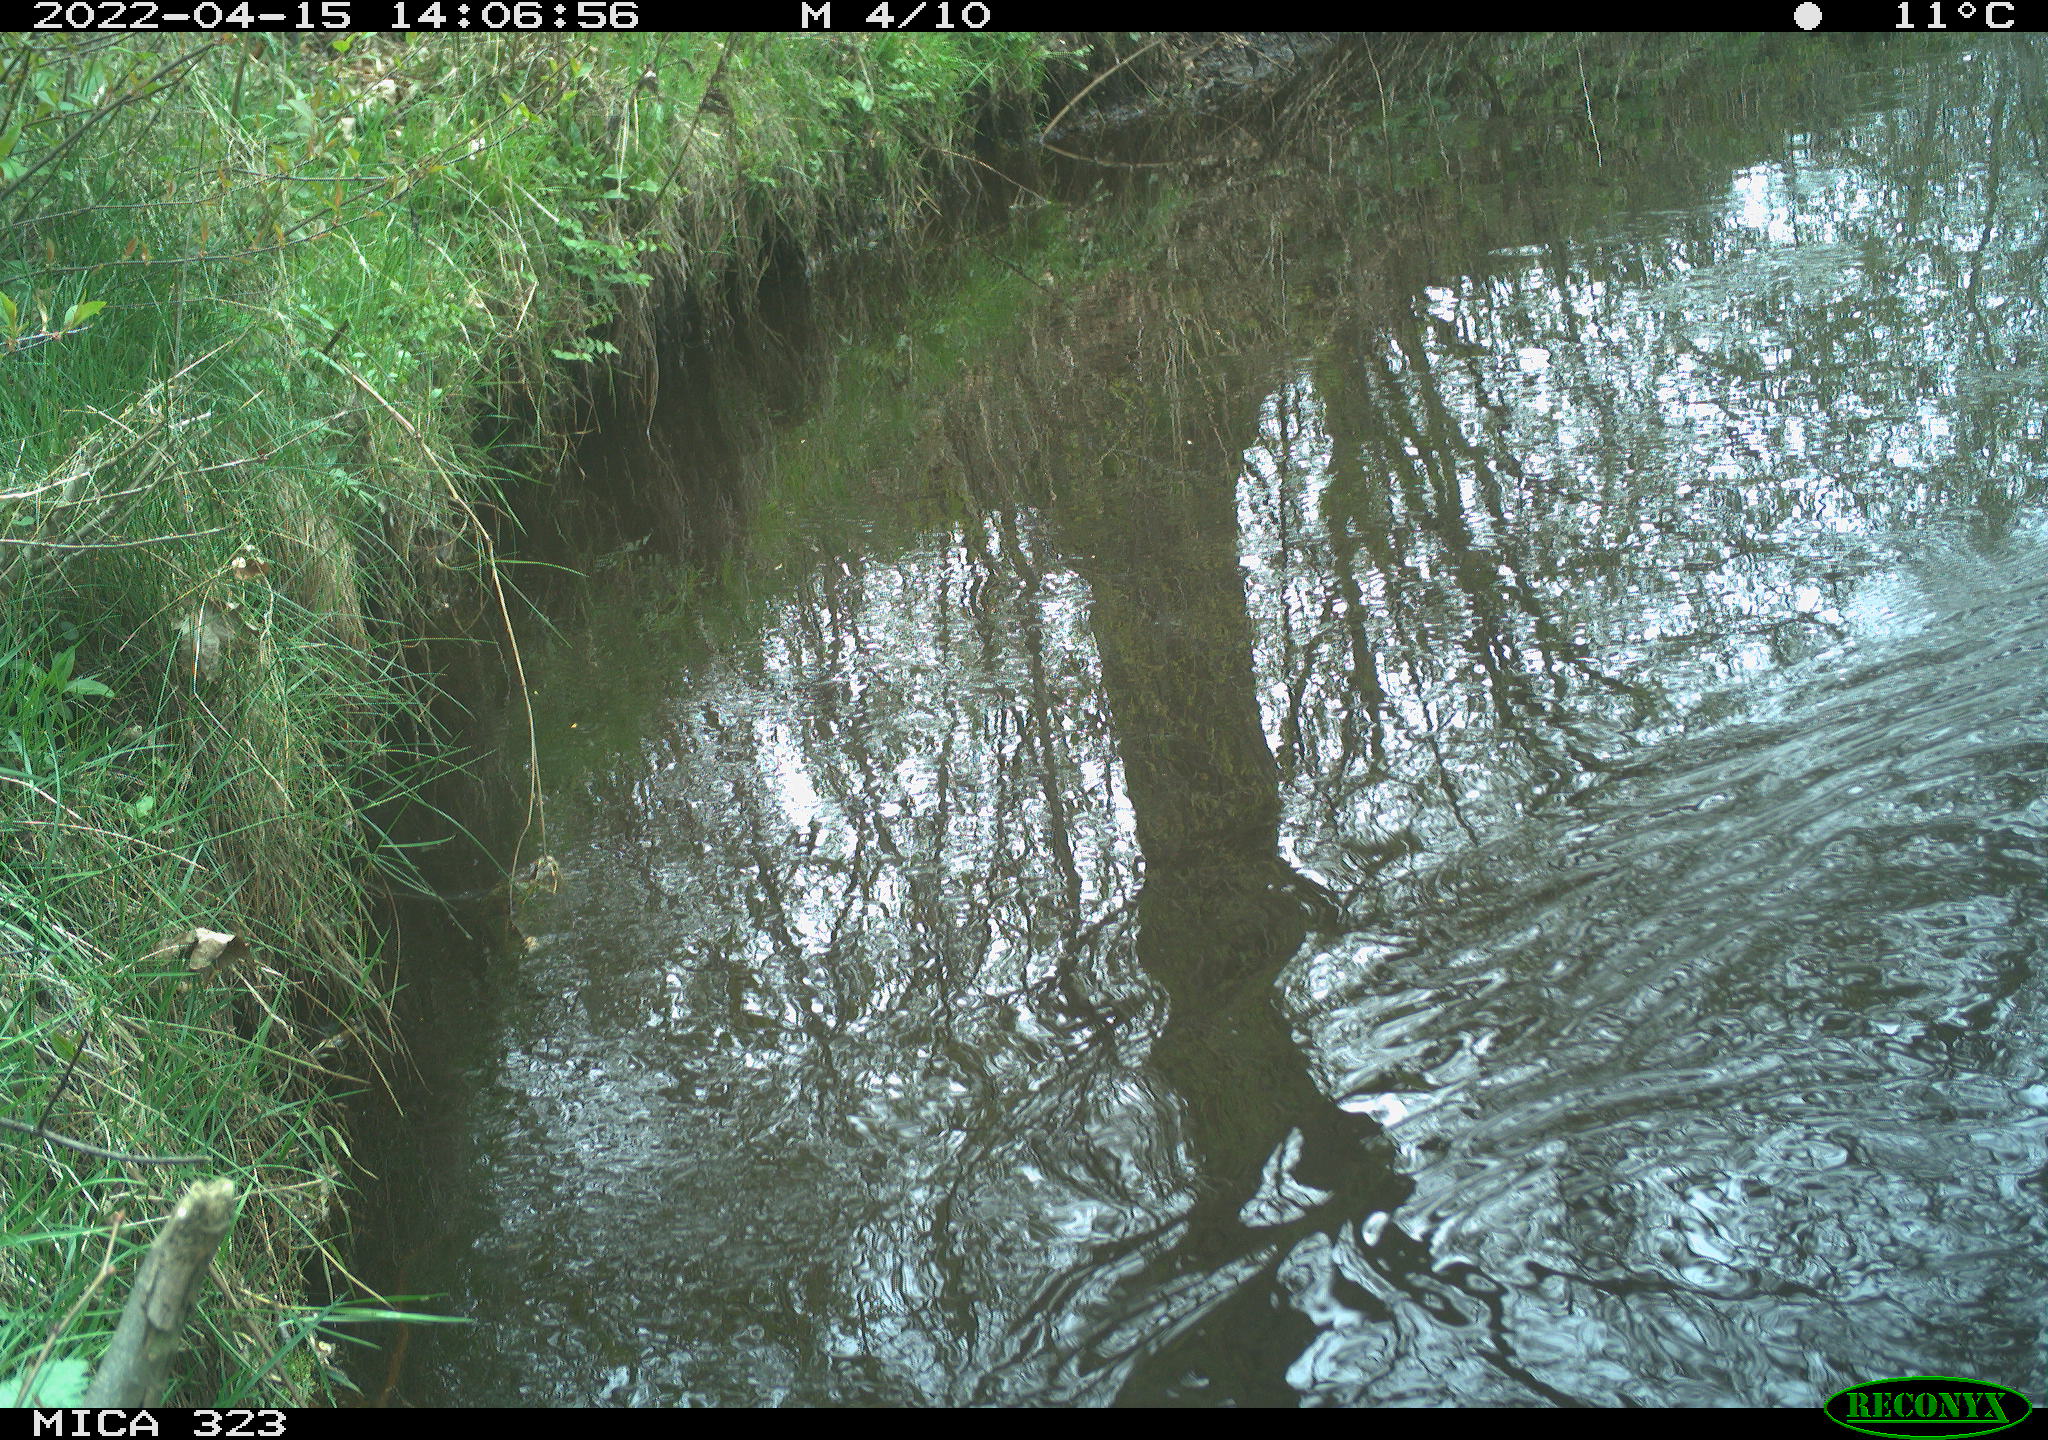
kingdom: Animalia
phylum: Chordata
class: Aves
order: Anseriformes
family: Anatidae
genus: Anas
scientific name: Anas platyrhynchos
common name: Mallard
